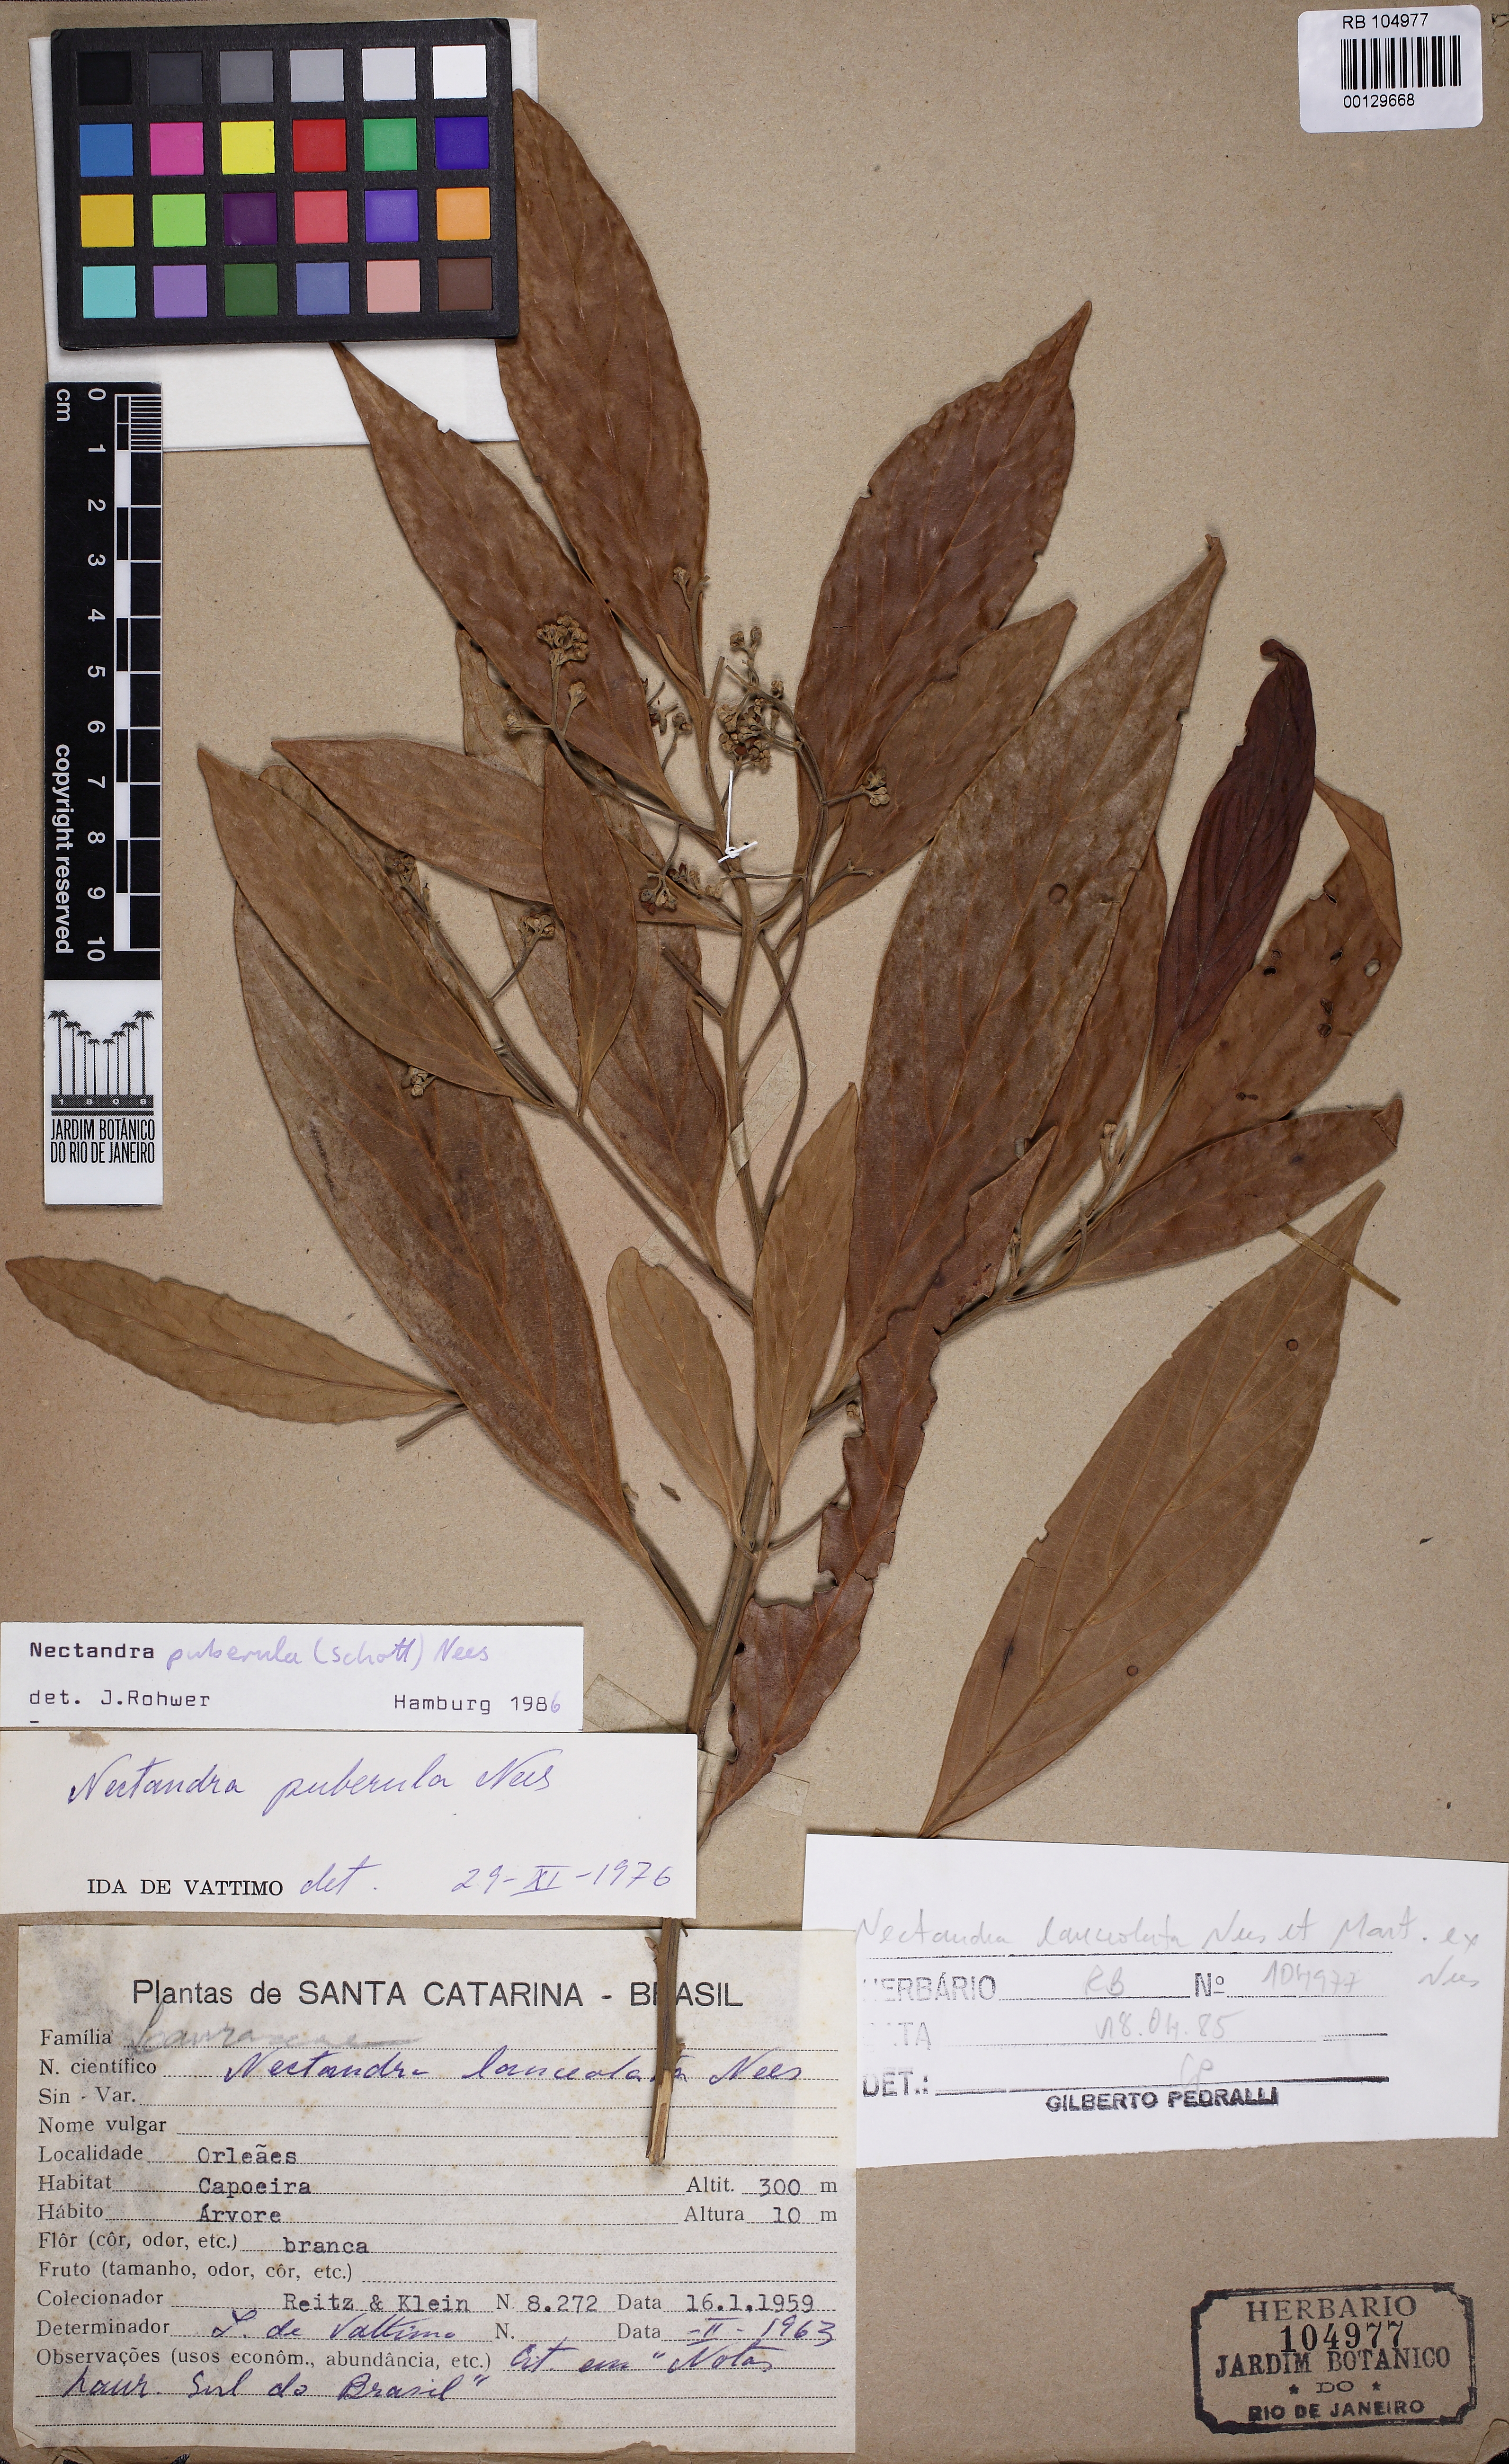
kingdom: Plantae
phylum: Tracheophyta
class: Magnoliopsida
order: Laurales
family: Lauraceae
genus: Nectandra
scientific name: Nectandra puberula
